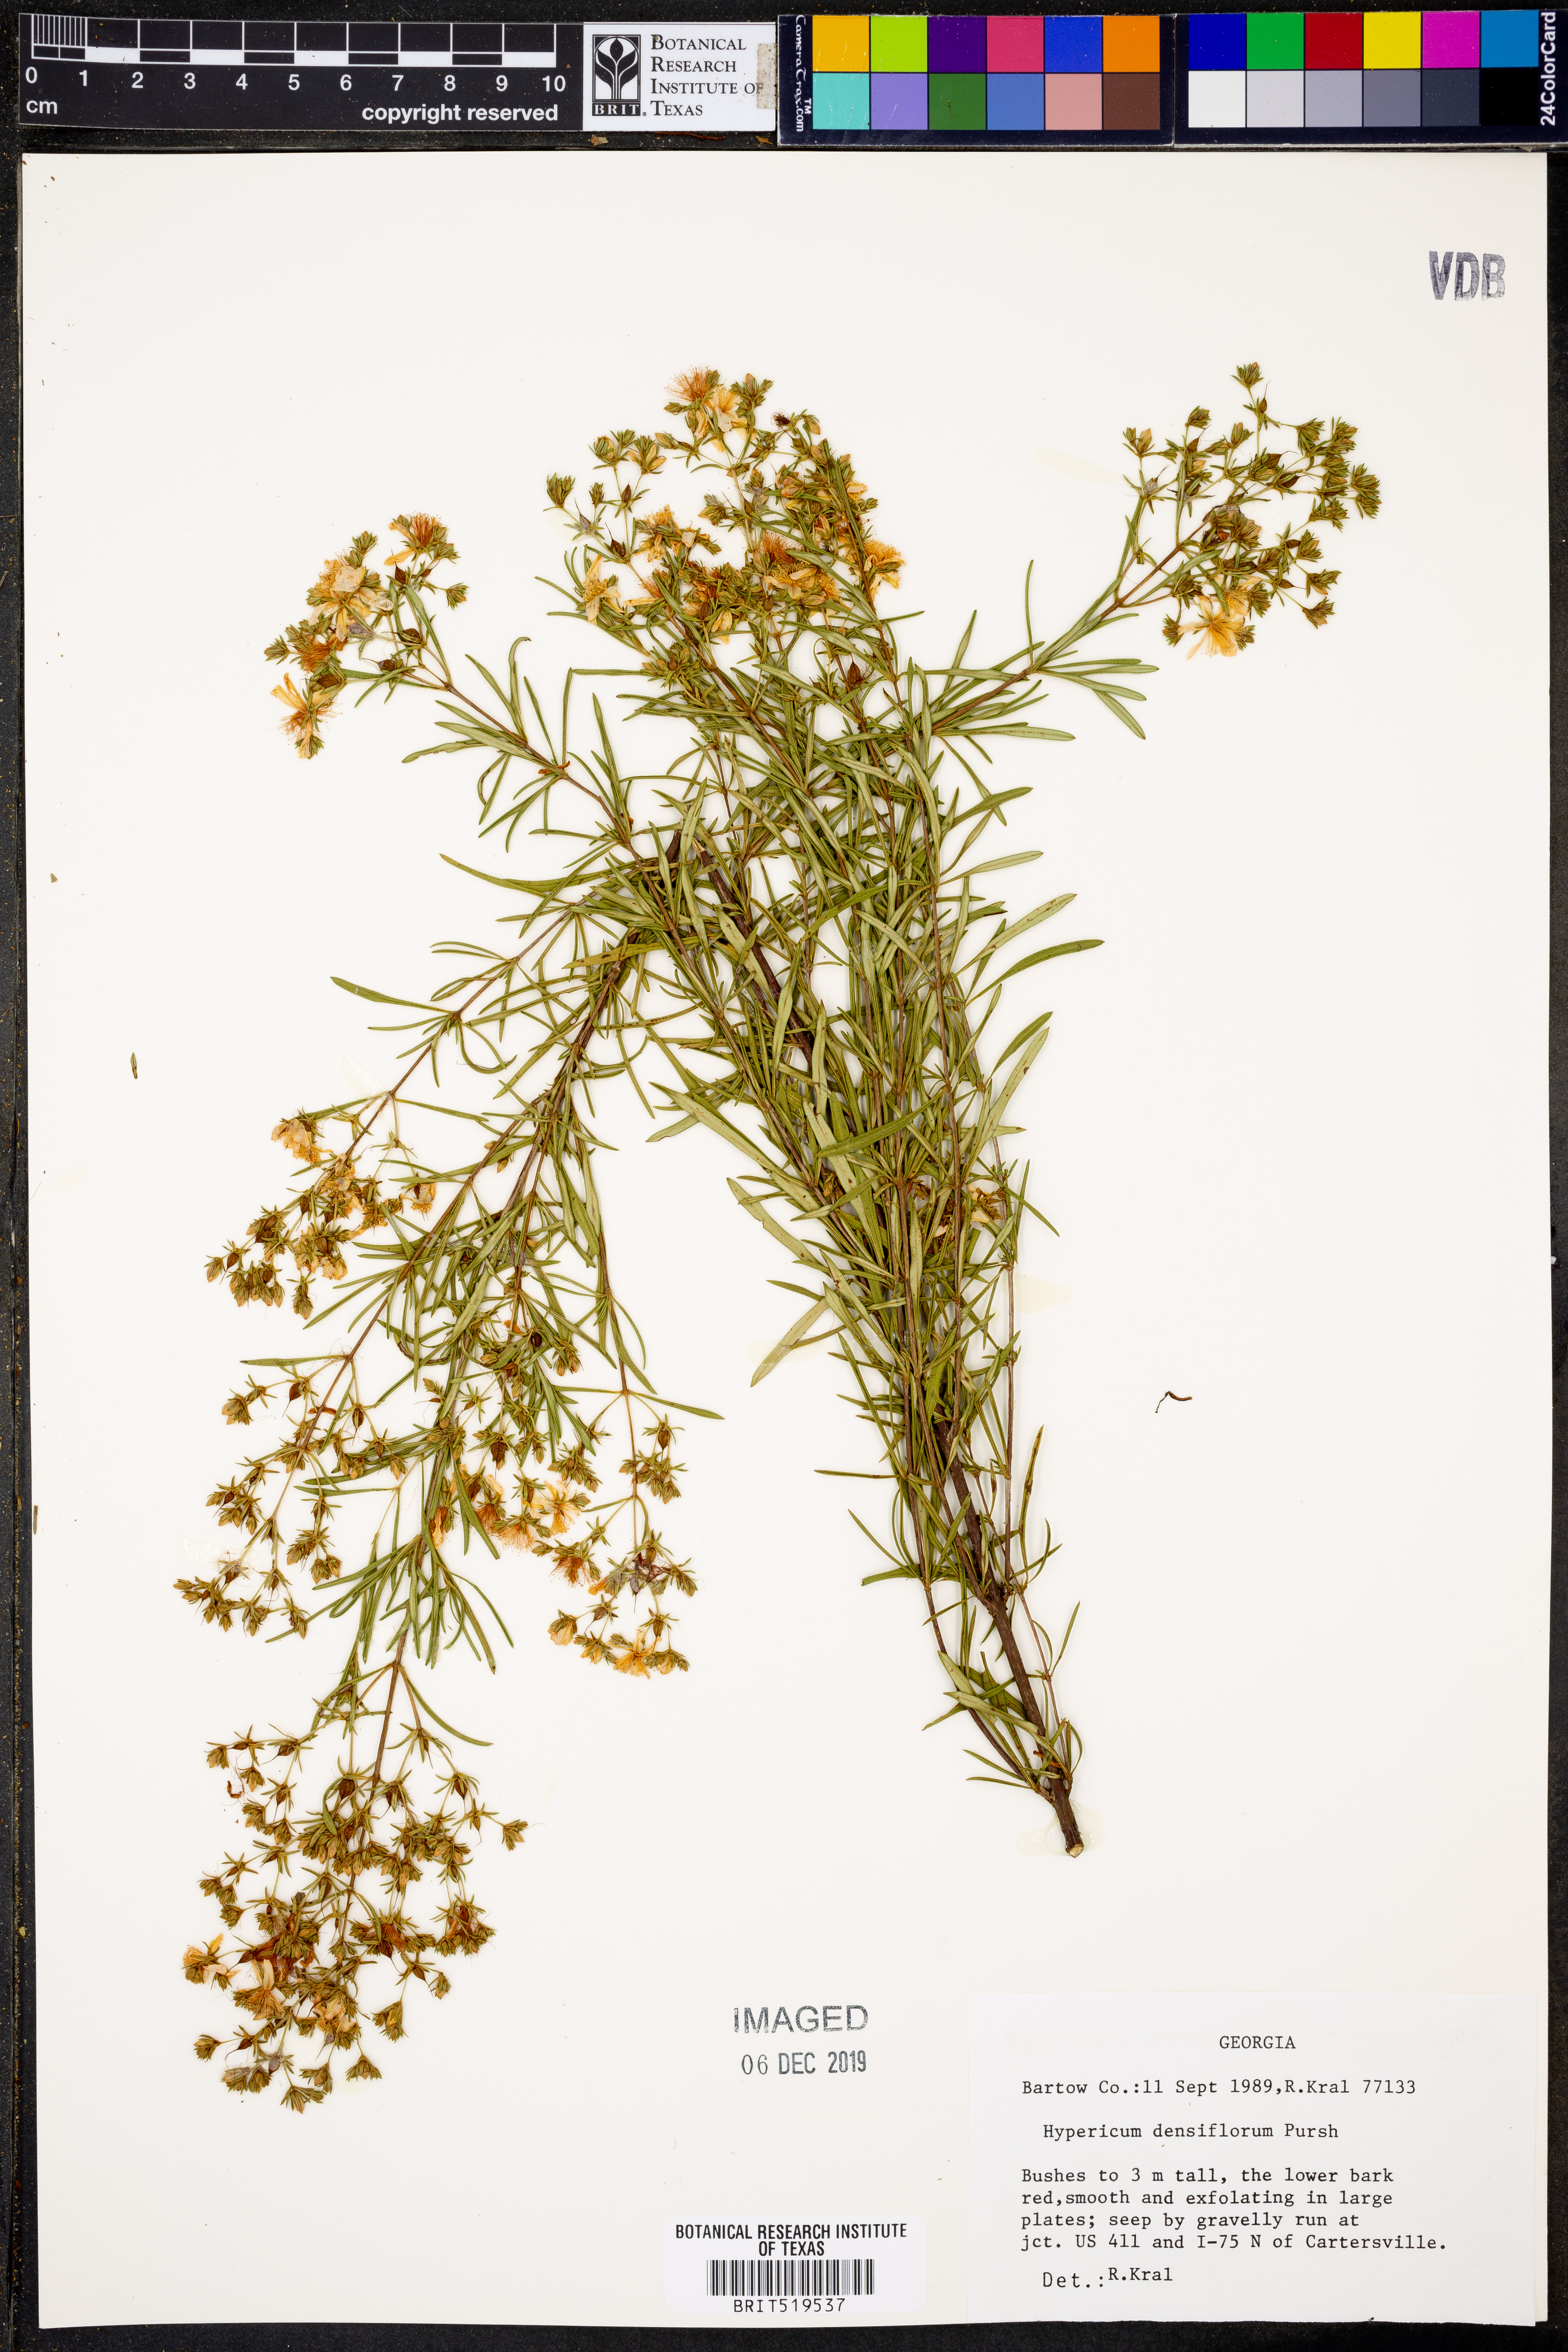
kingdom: Plantae
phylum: Tracheophyta
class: Magnoliopsida
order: Malpighiales
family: Hypericaceae
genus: Hypericum
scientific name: Hypericum densiflorum
